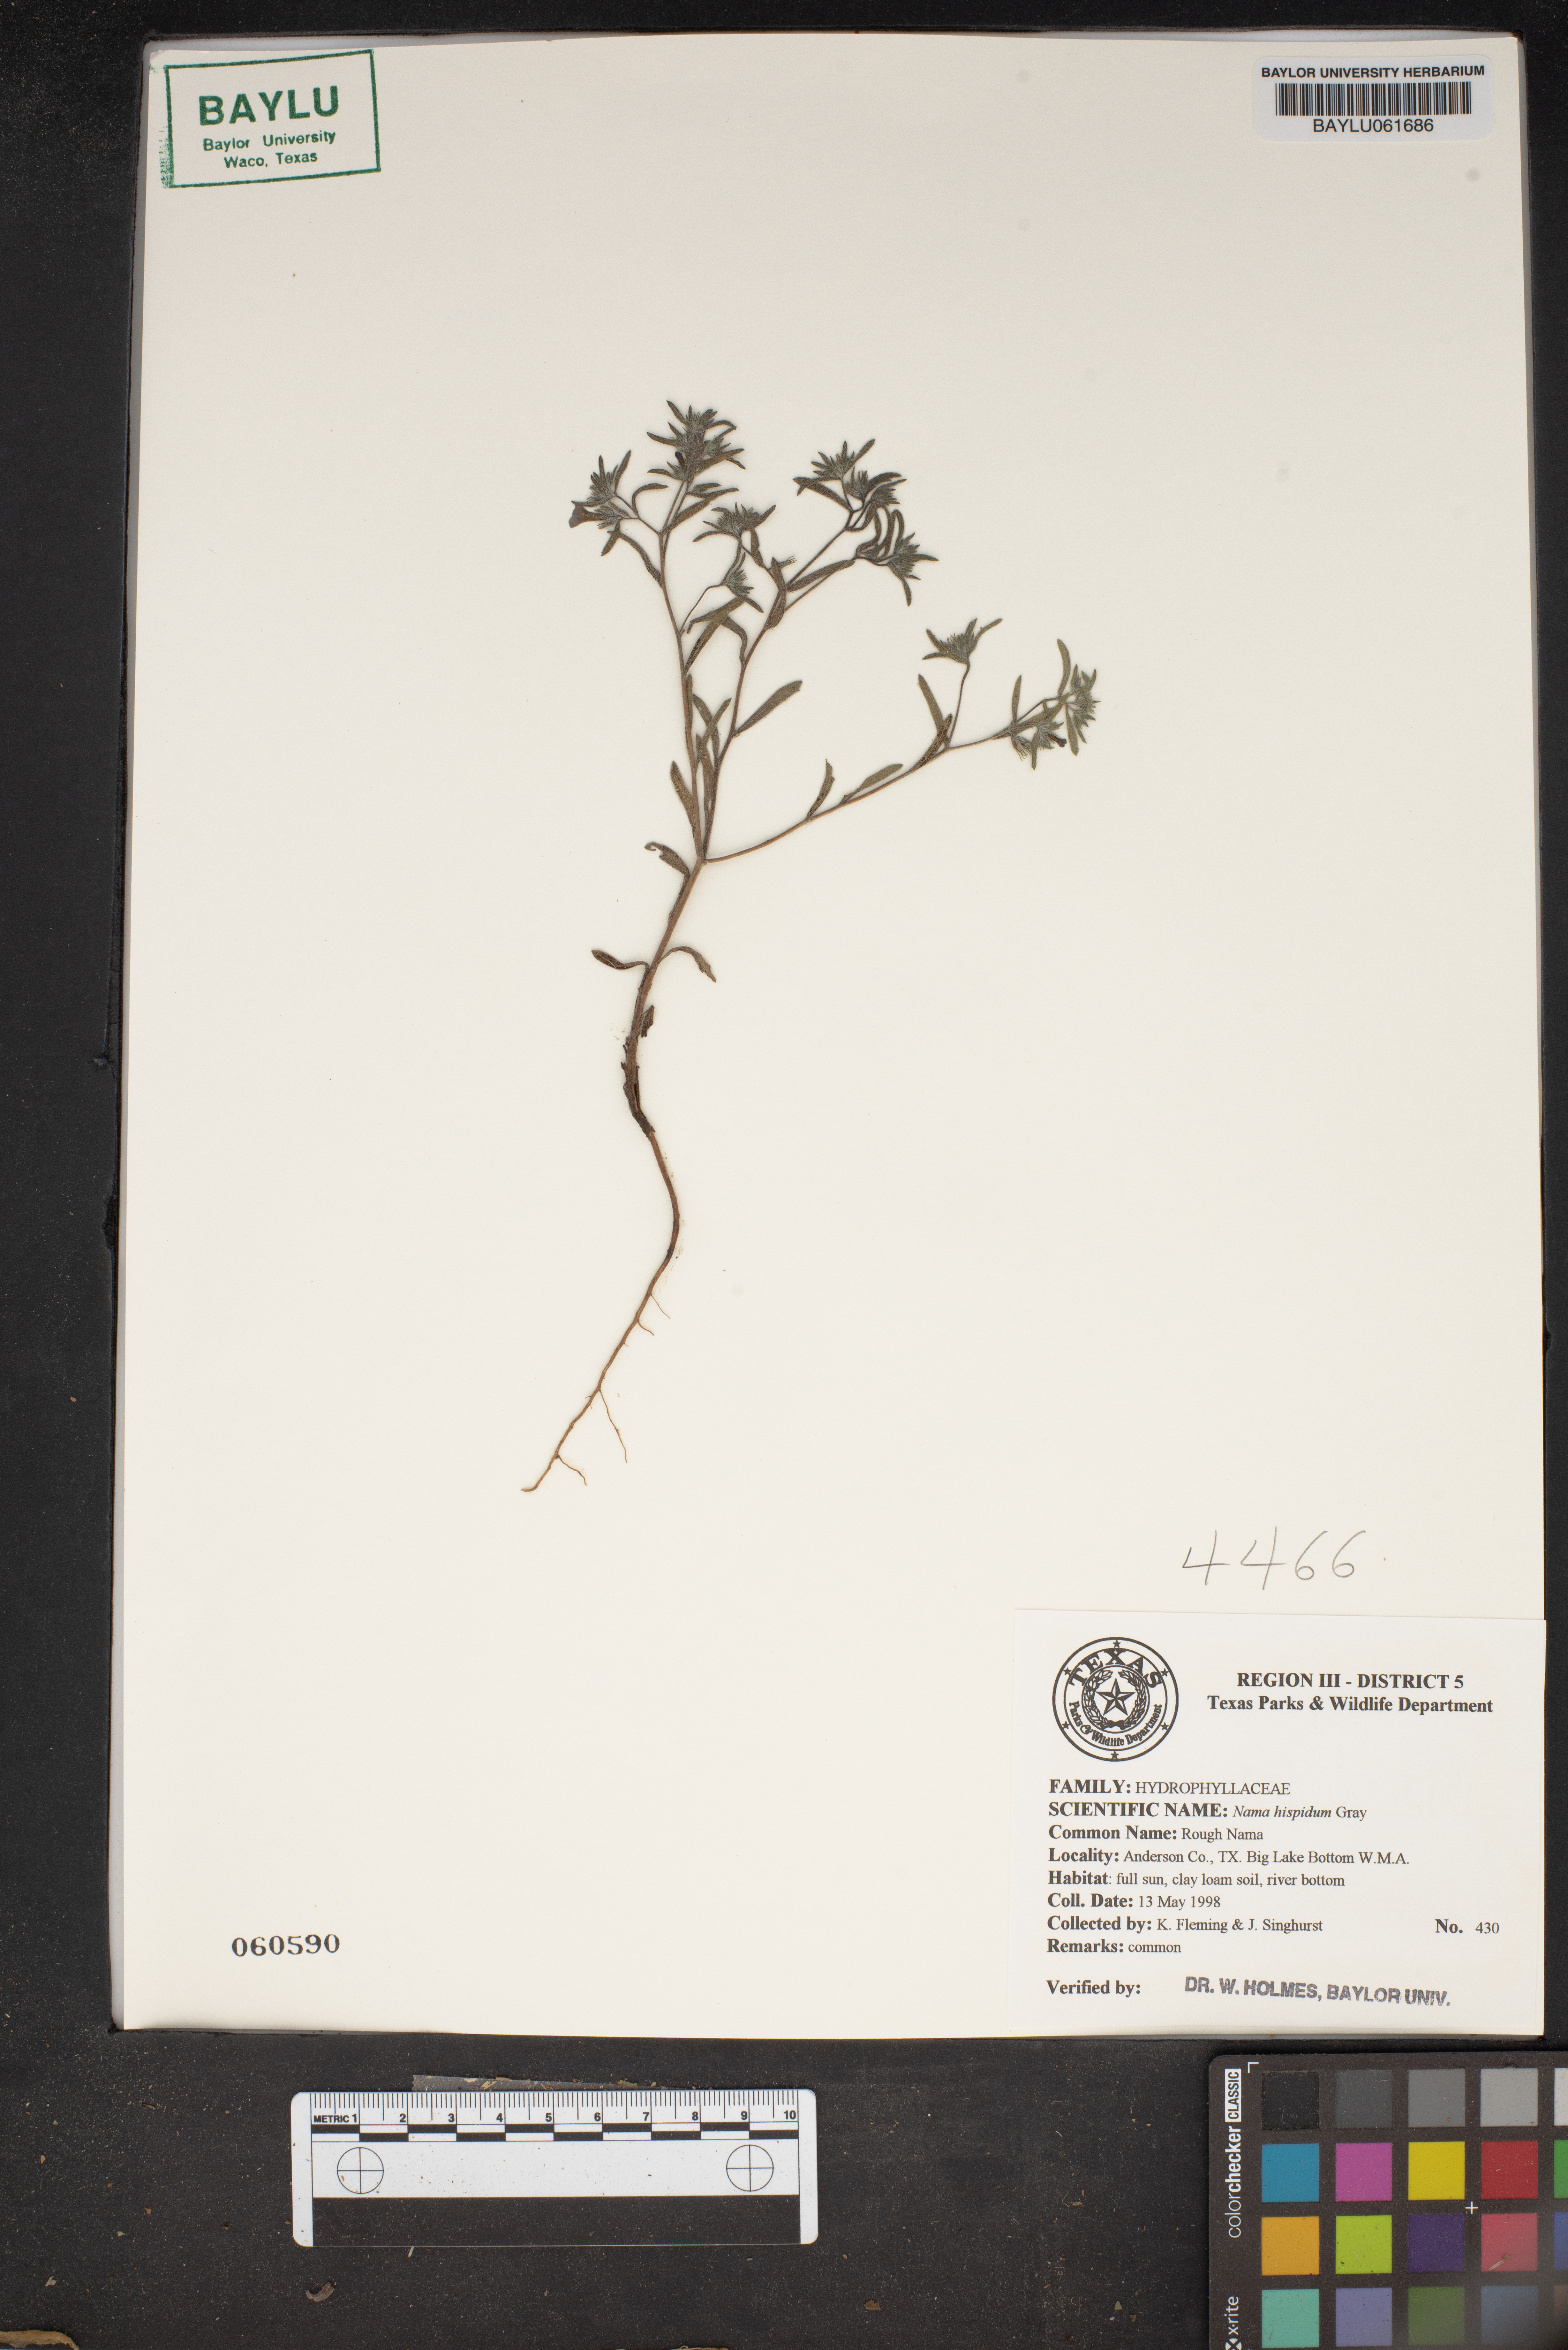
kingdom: Plantae
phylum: Tracheophyta
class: Magnoliopsida
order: Boraginales
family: Namaceae
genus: Nama
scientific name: Nama hispida
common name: Bristly nama
